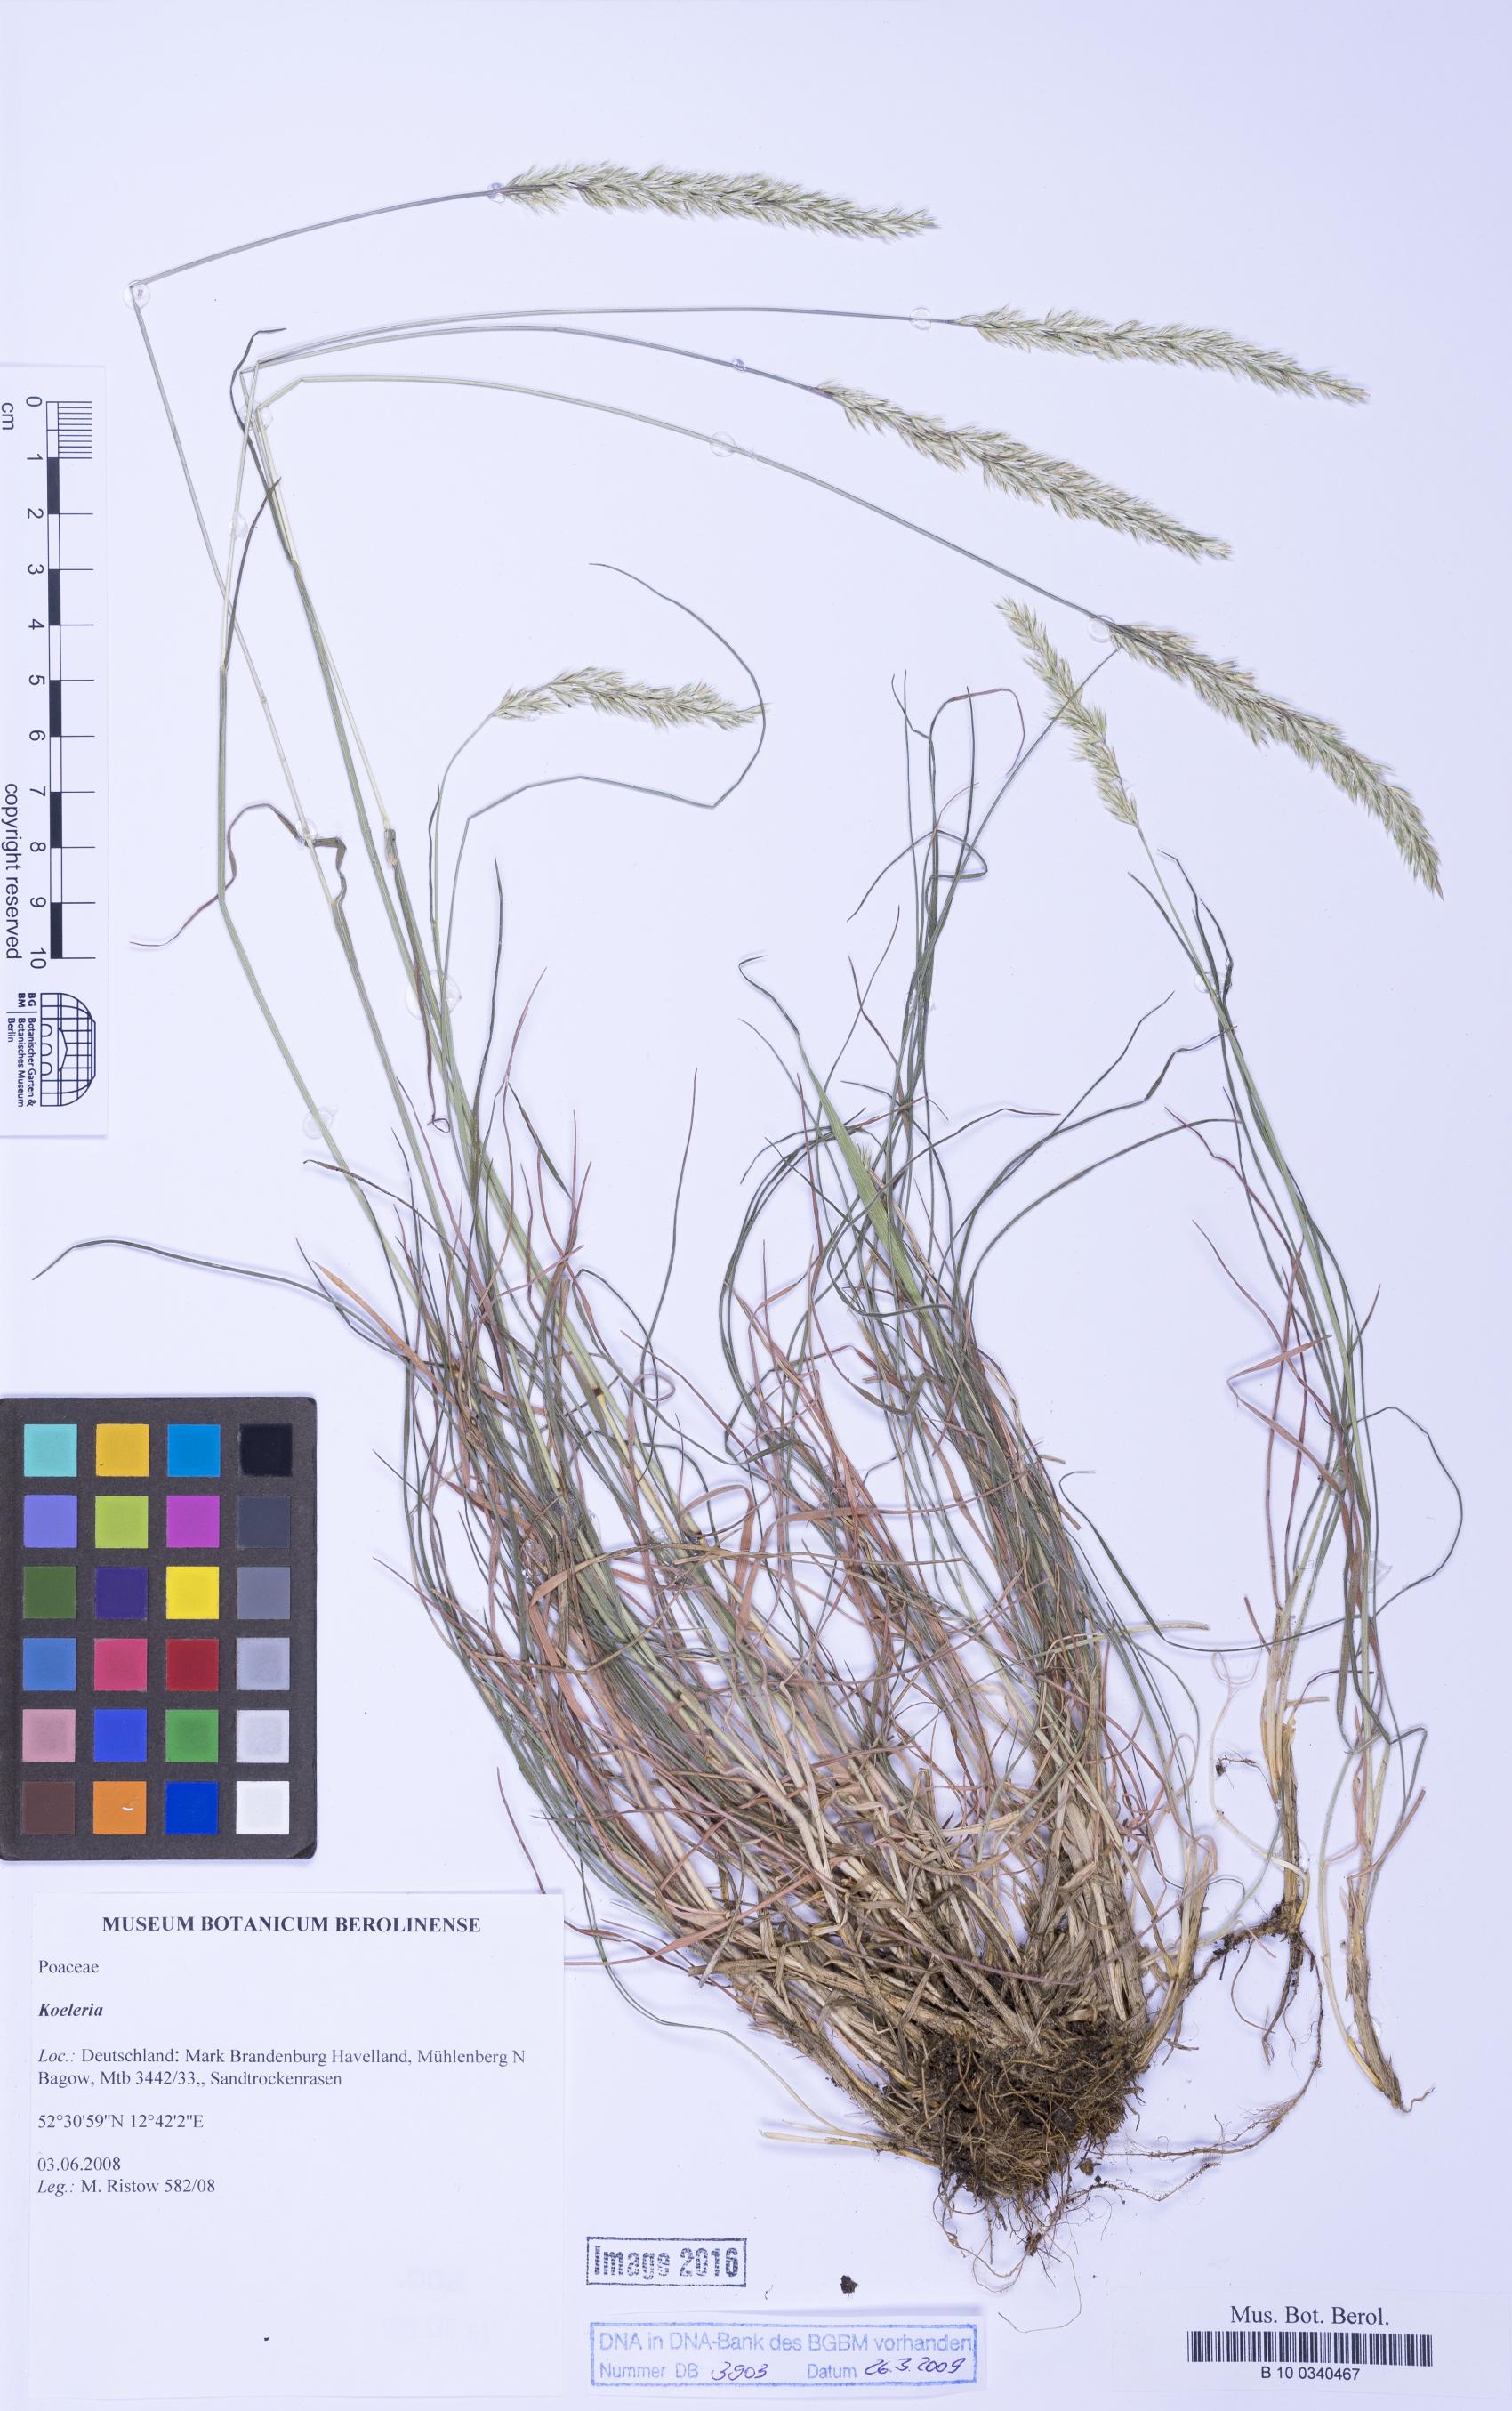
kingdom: Plantae
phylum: Tracheophyta
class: Liliopsida
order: Poales
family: Poaceae
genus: Koeleria
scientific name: Koeleria
